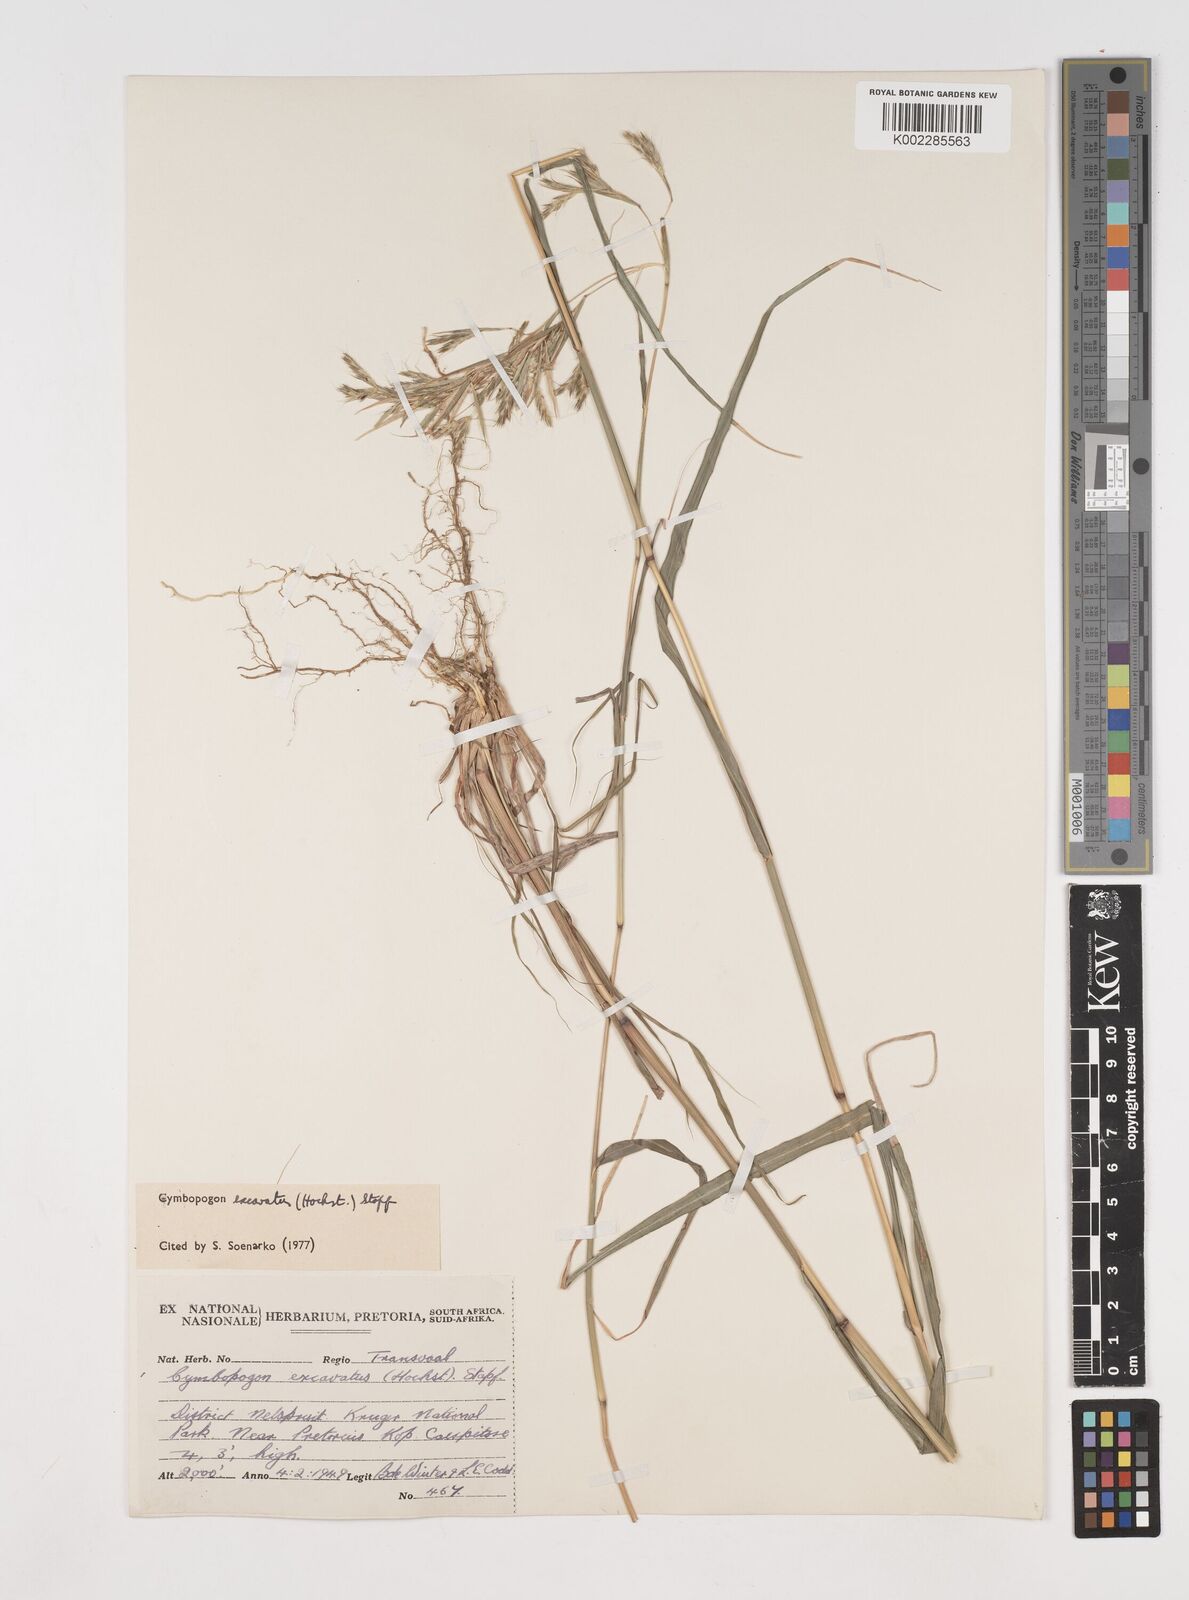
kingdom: Plantae
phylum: Tracheophyta
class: Liliopsida
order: Poales
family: Poaceae
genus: Cymbopogon
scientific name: Cymbopogon caesius
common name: Kachi grass
